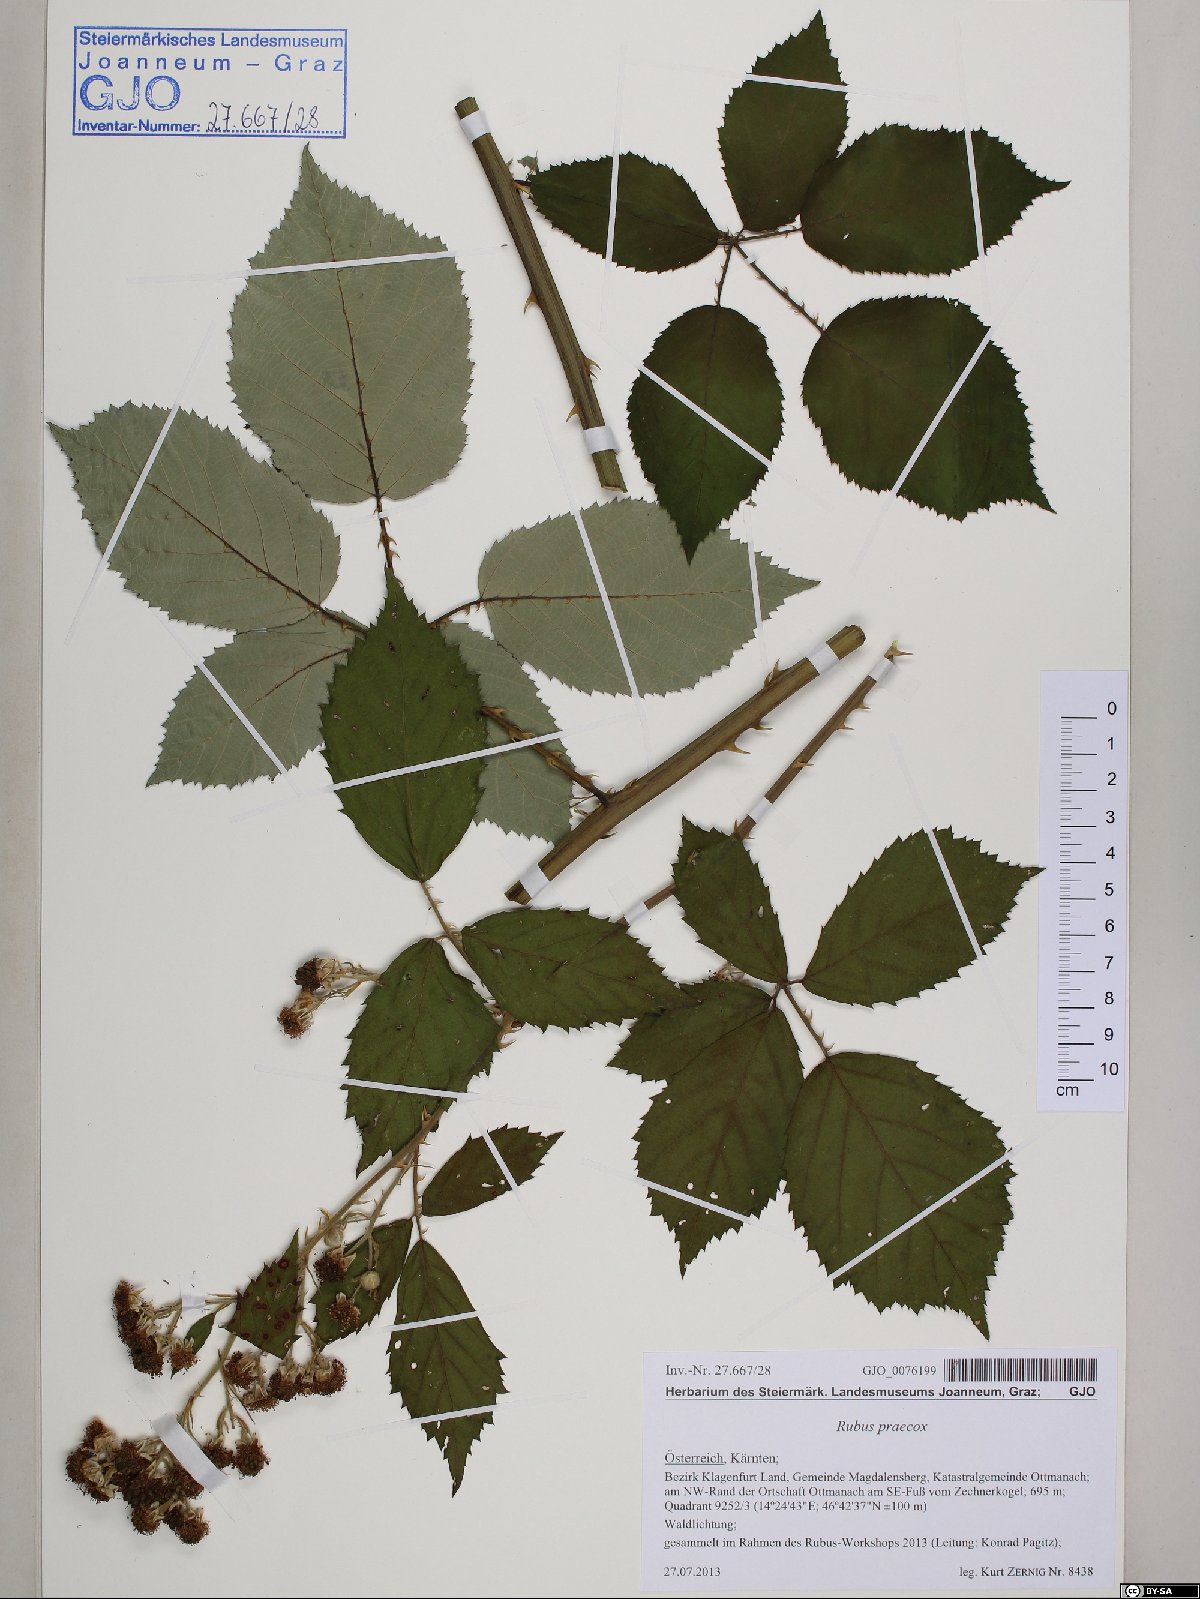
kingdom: Plantae
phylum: Tracheophyta
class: Magnoliopsida
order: Rosales
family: Rosaceae
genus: Rubus
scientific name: Rubus sulcatus
